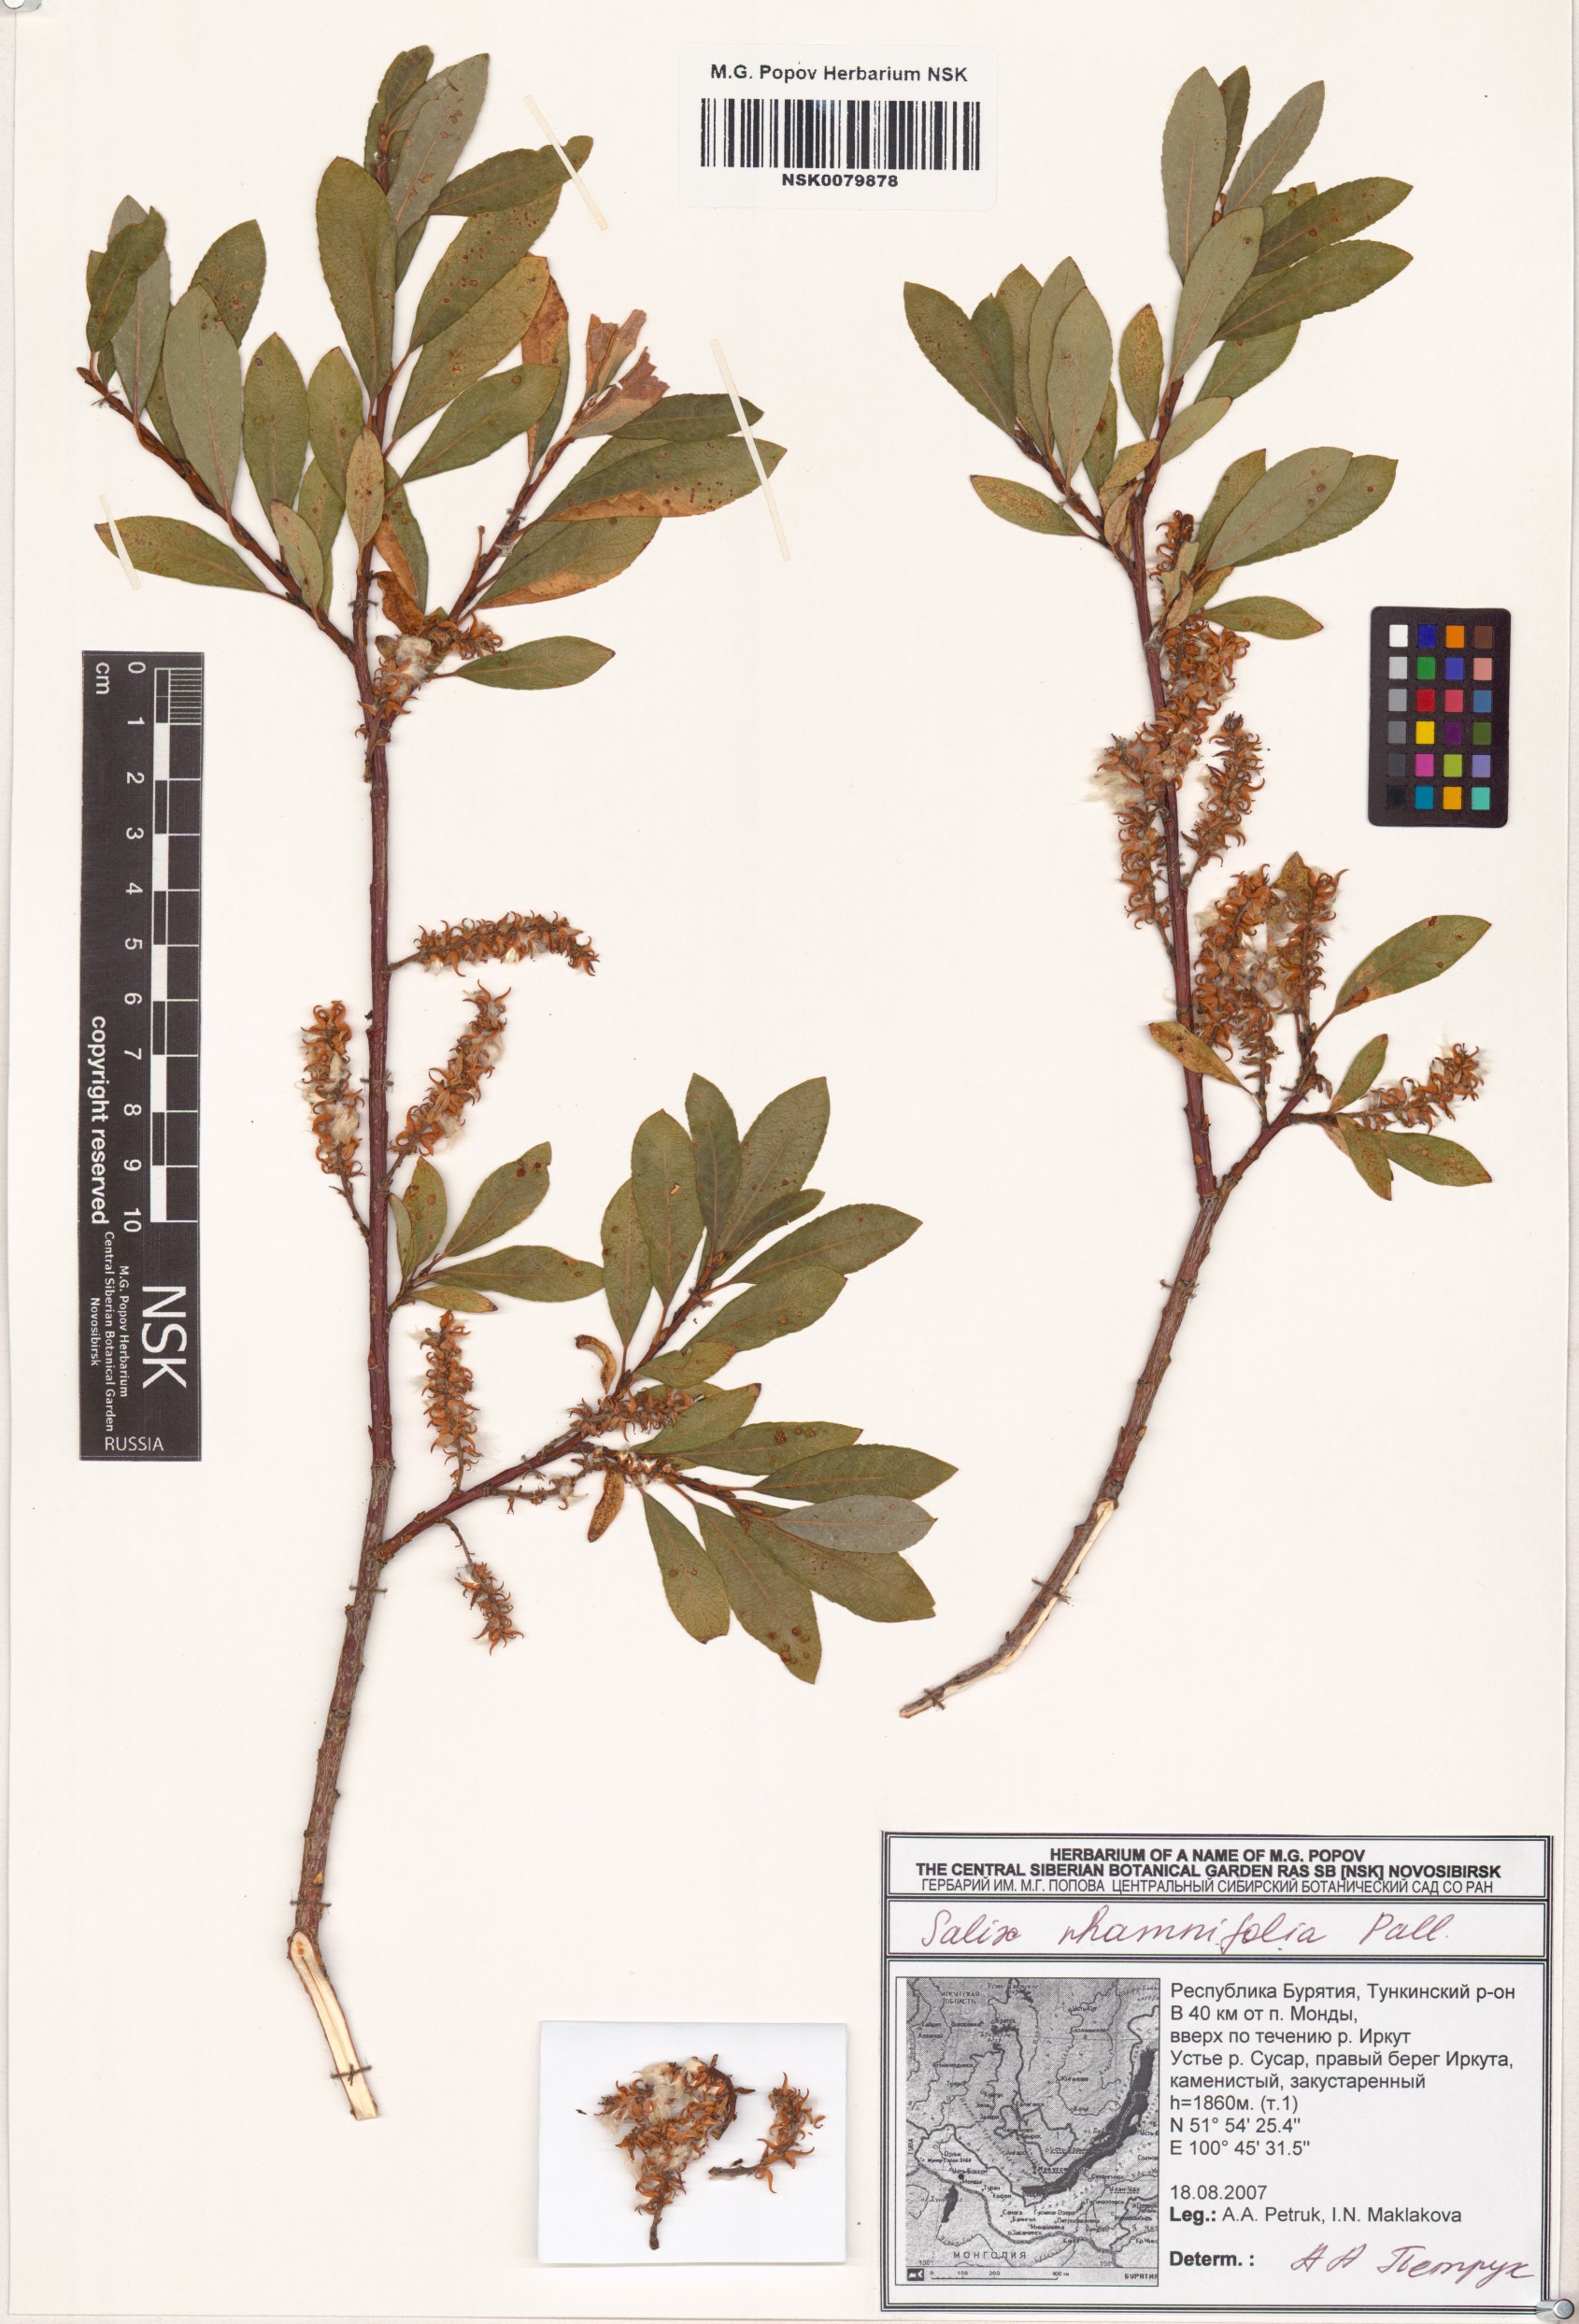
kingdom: Plantae
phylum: Tracheophyta
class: Magnoliopsida
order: Malpighiales
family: Salicaceae
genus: Salix
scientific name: Salix rhamnifolia
